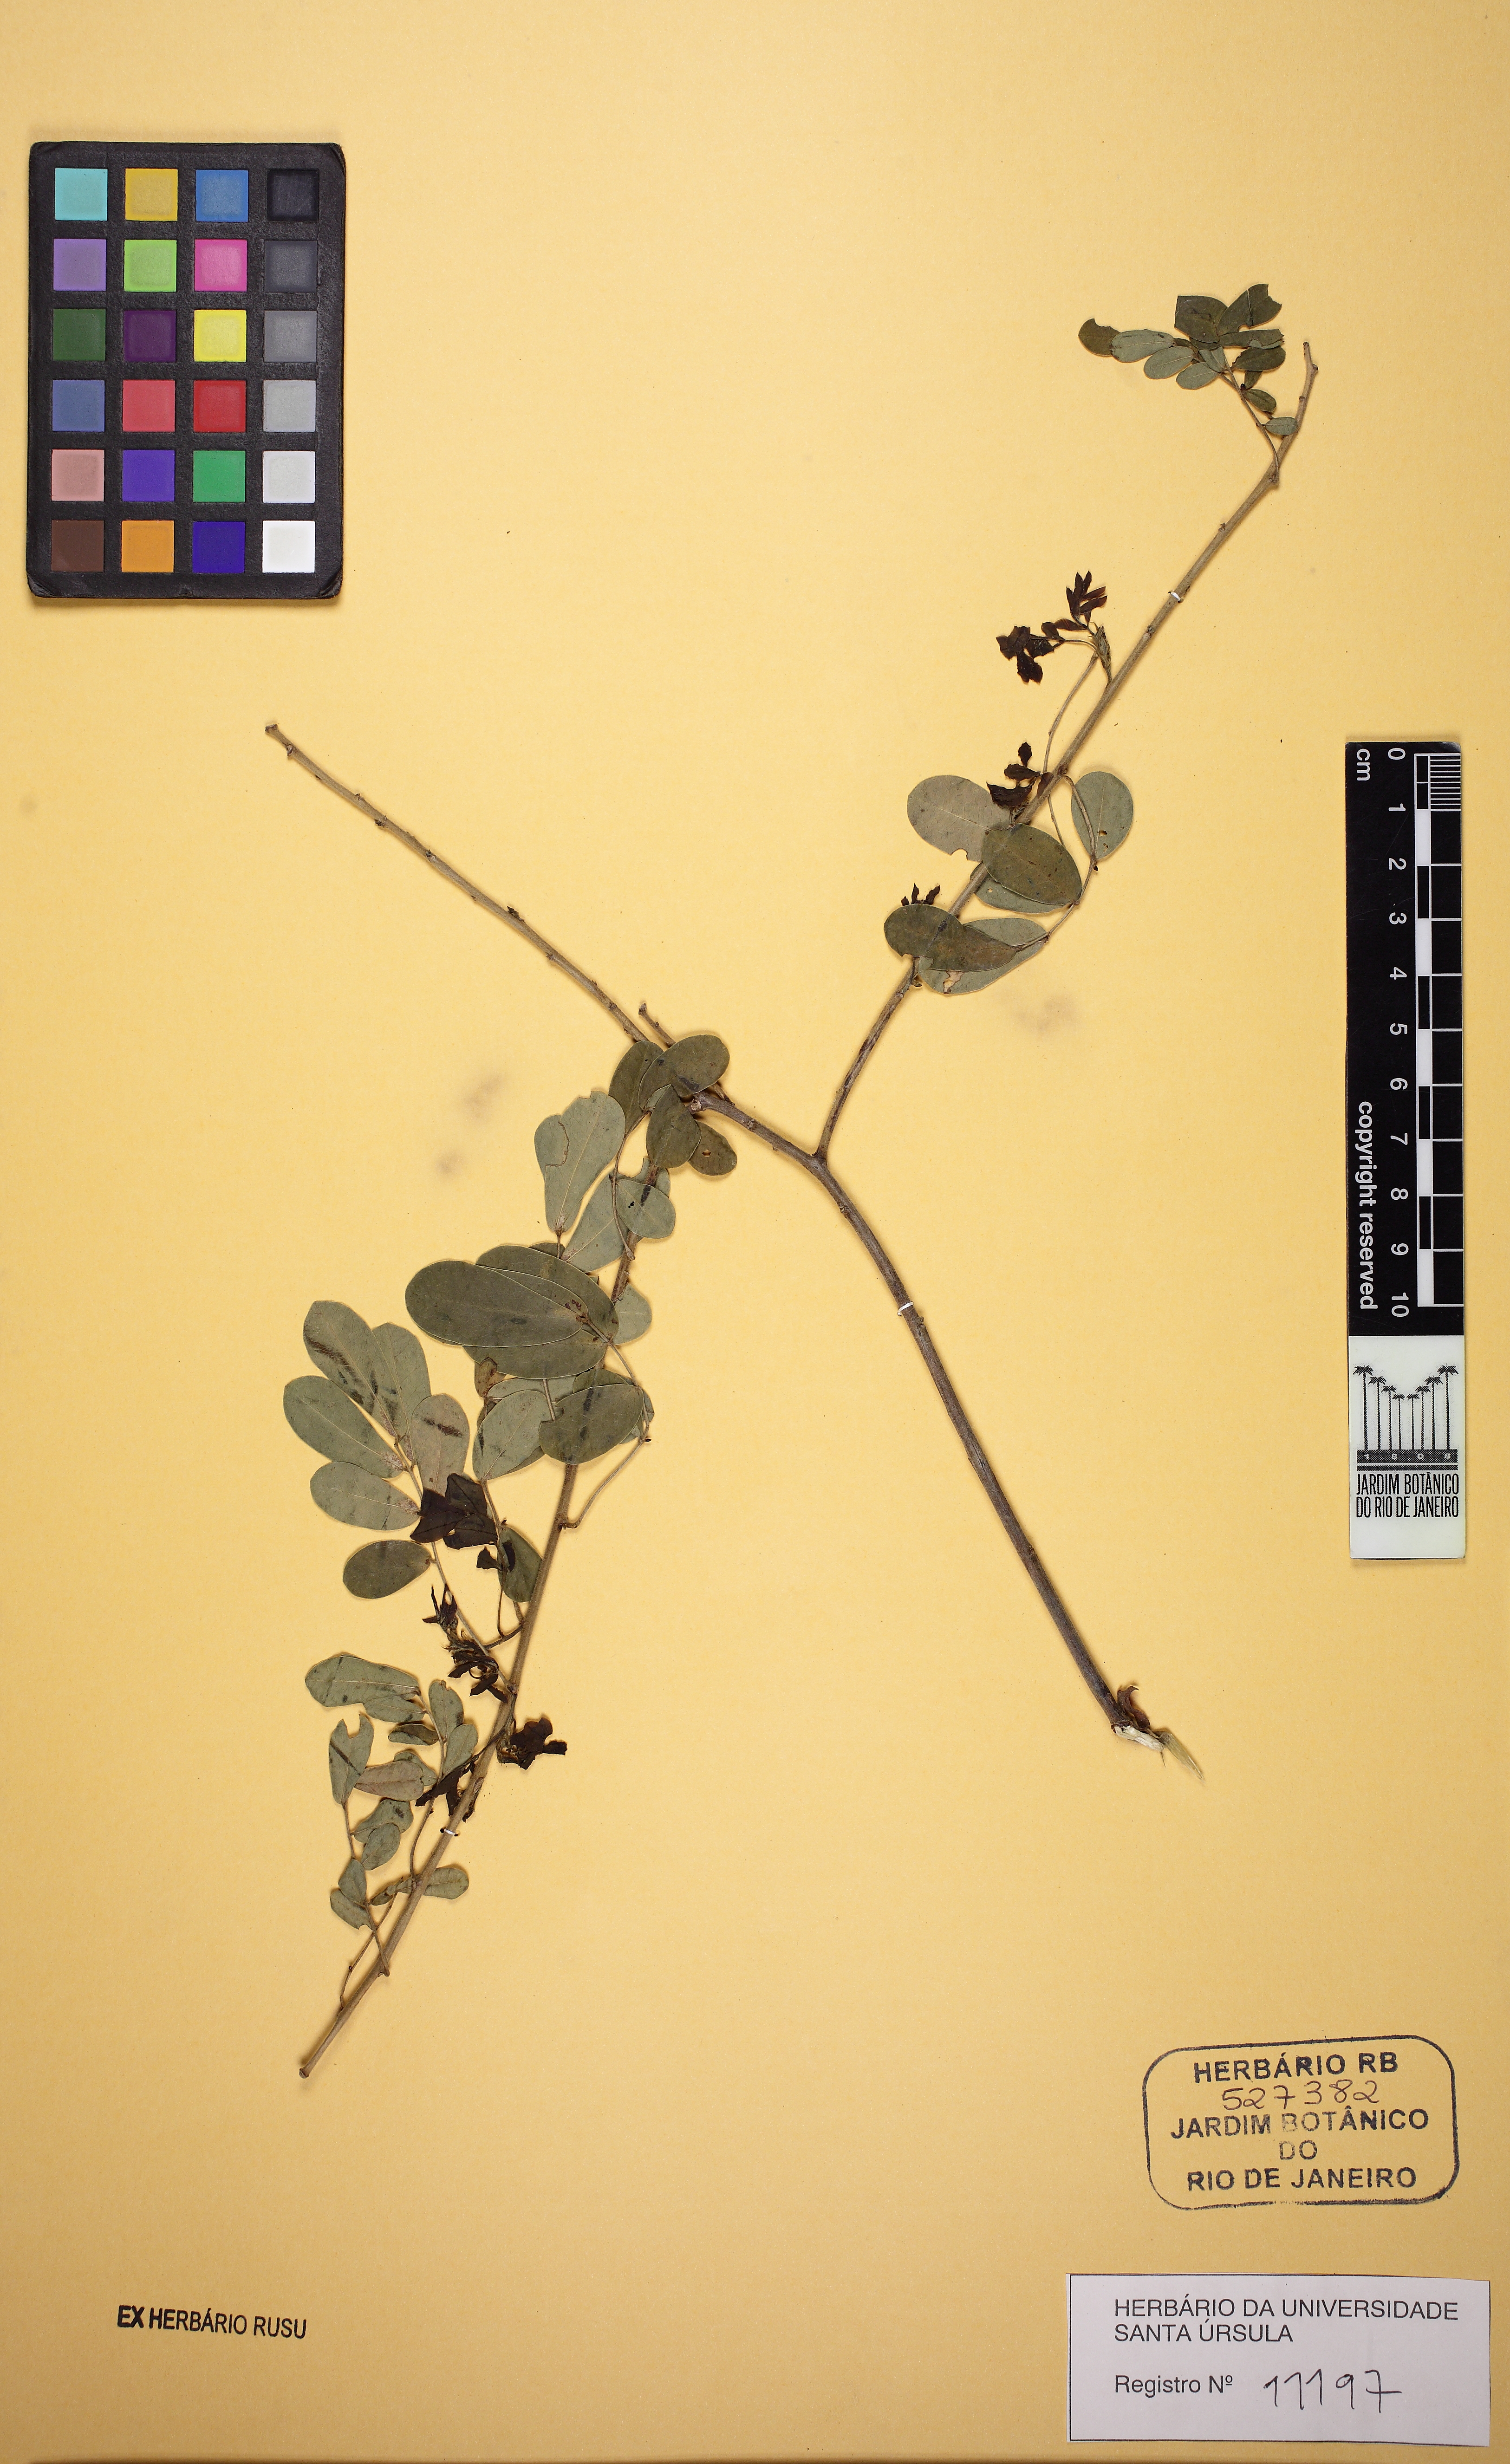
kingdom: Plantae
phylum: Tracheophyta
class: Magnoliopsida
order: Fabales
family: Fabaceae
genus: Senna
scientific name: Senna pendula
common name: Easter cassia
